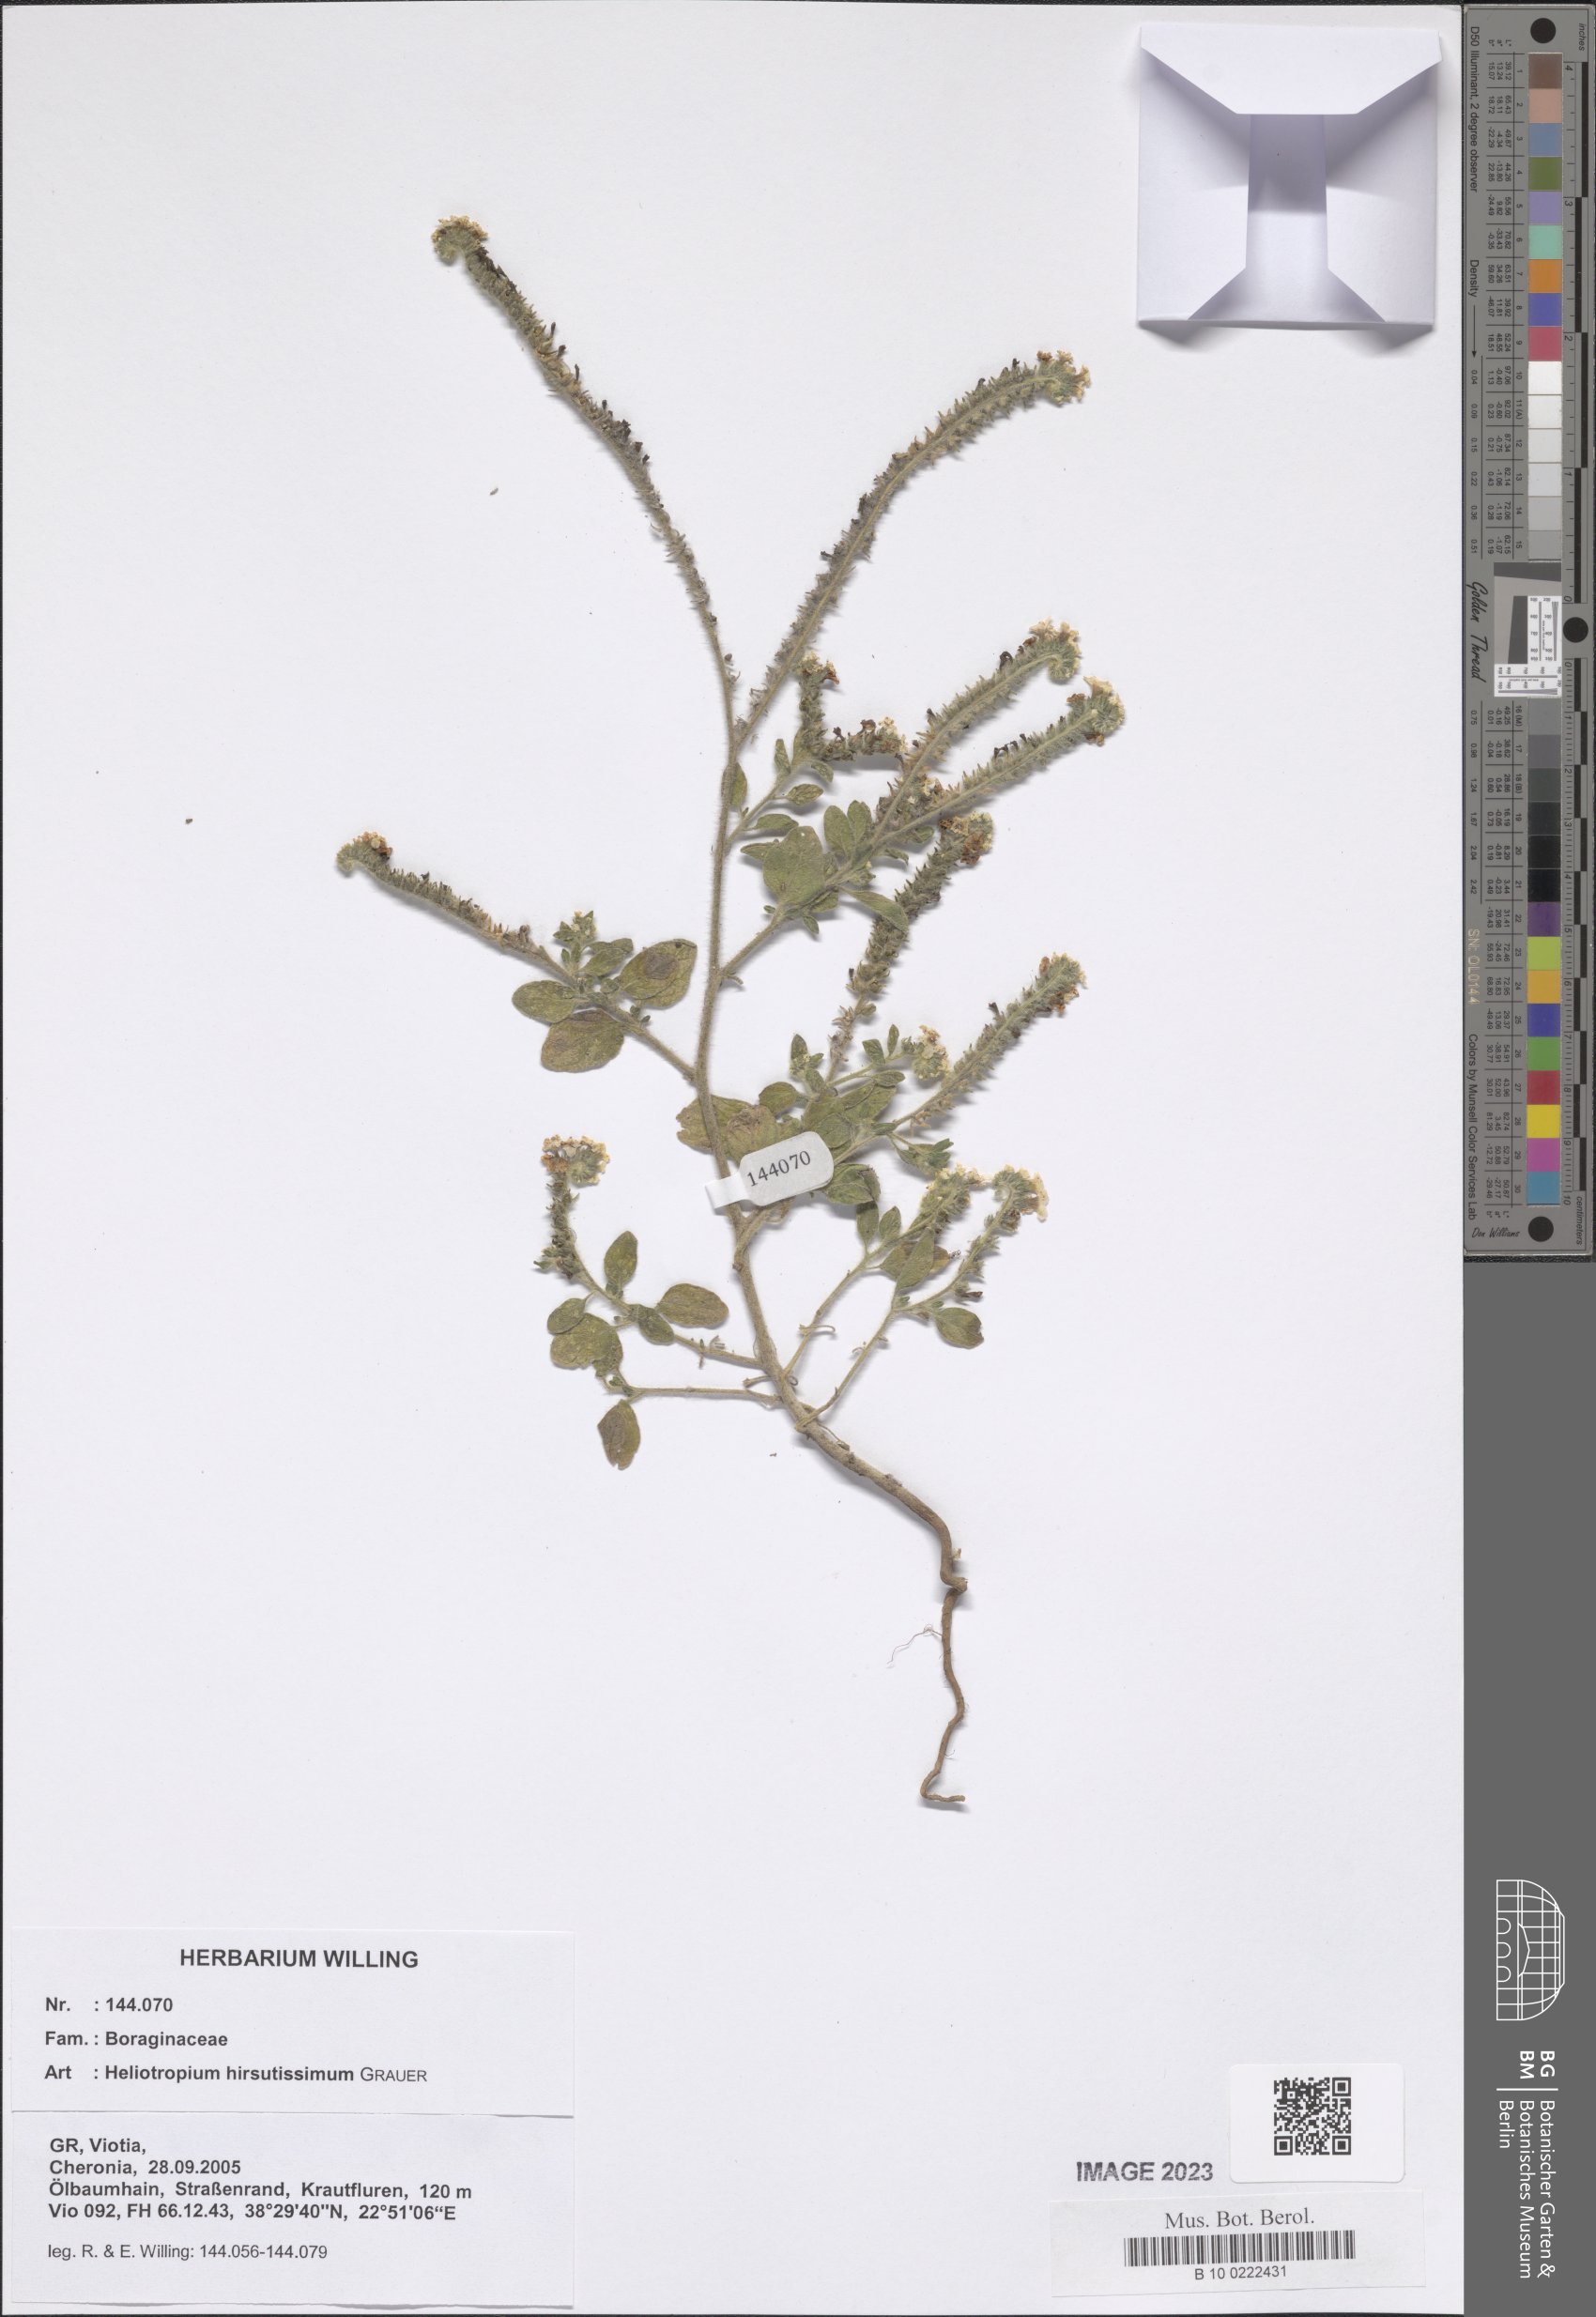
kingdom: Plantae
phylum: Tracheophyta
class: Magnoliopsida
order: Boraginales
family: Heliotropiaceae
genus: Heliotropium
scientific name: Heliotropium hirsutissimum
